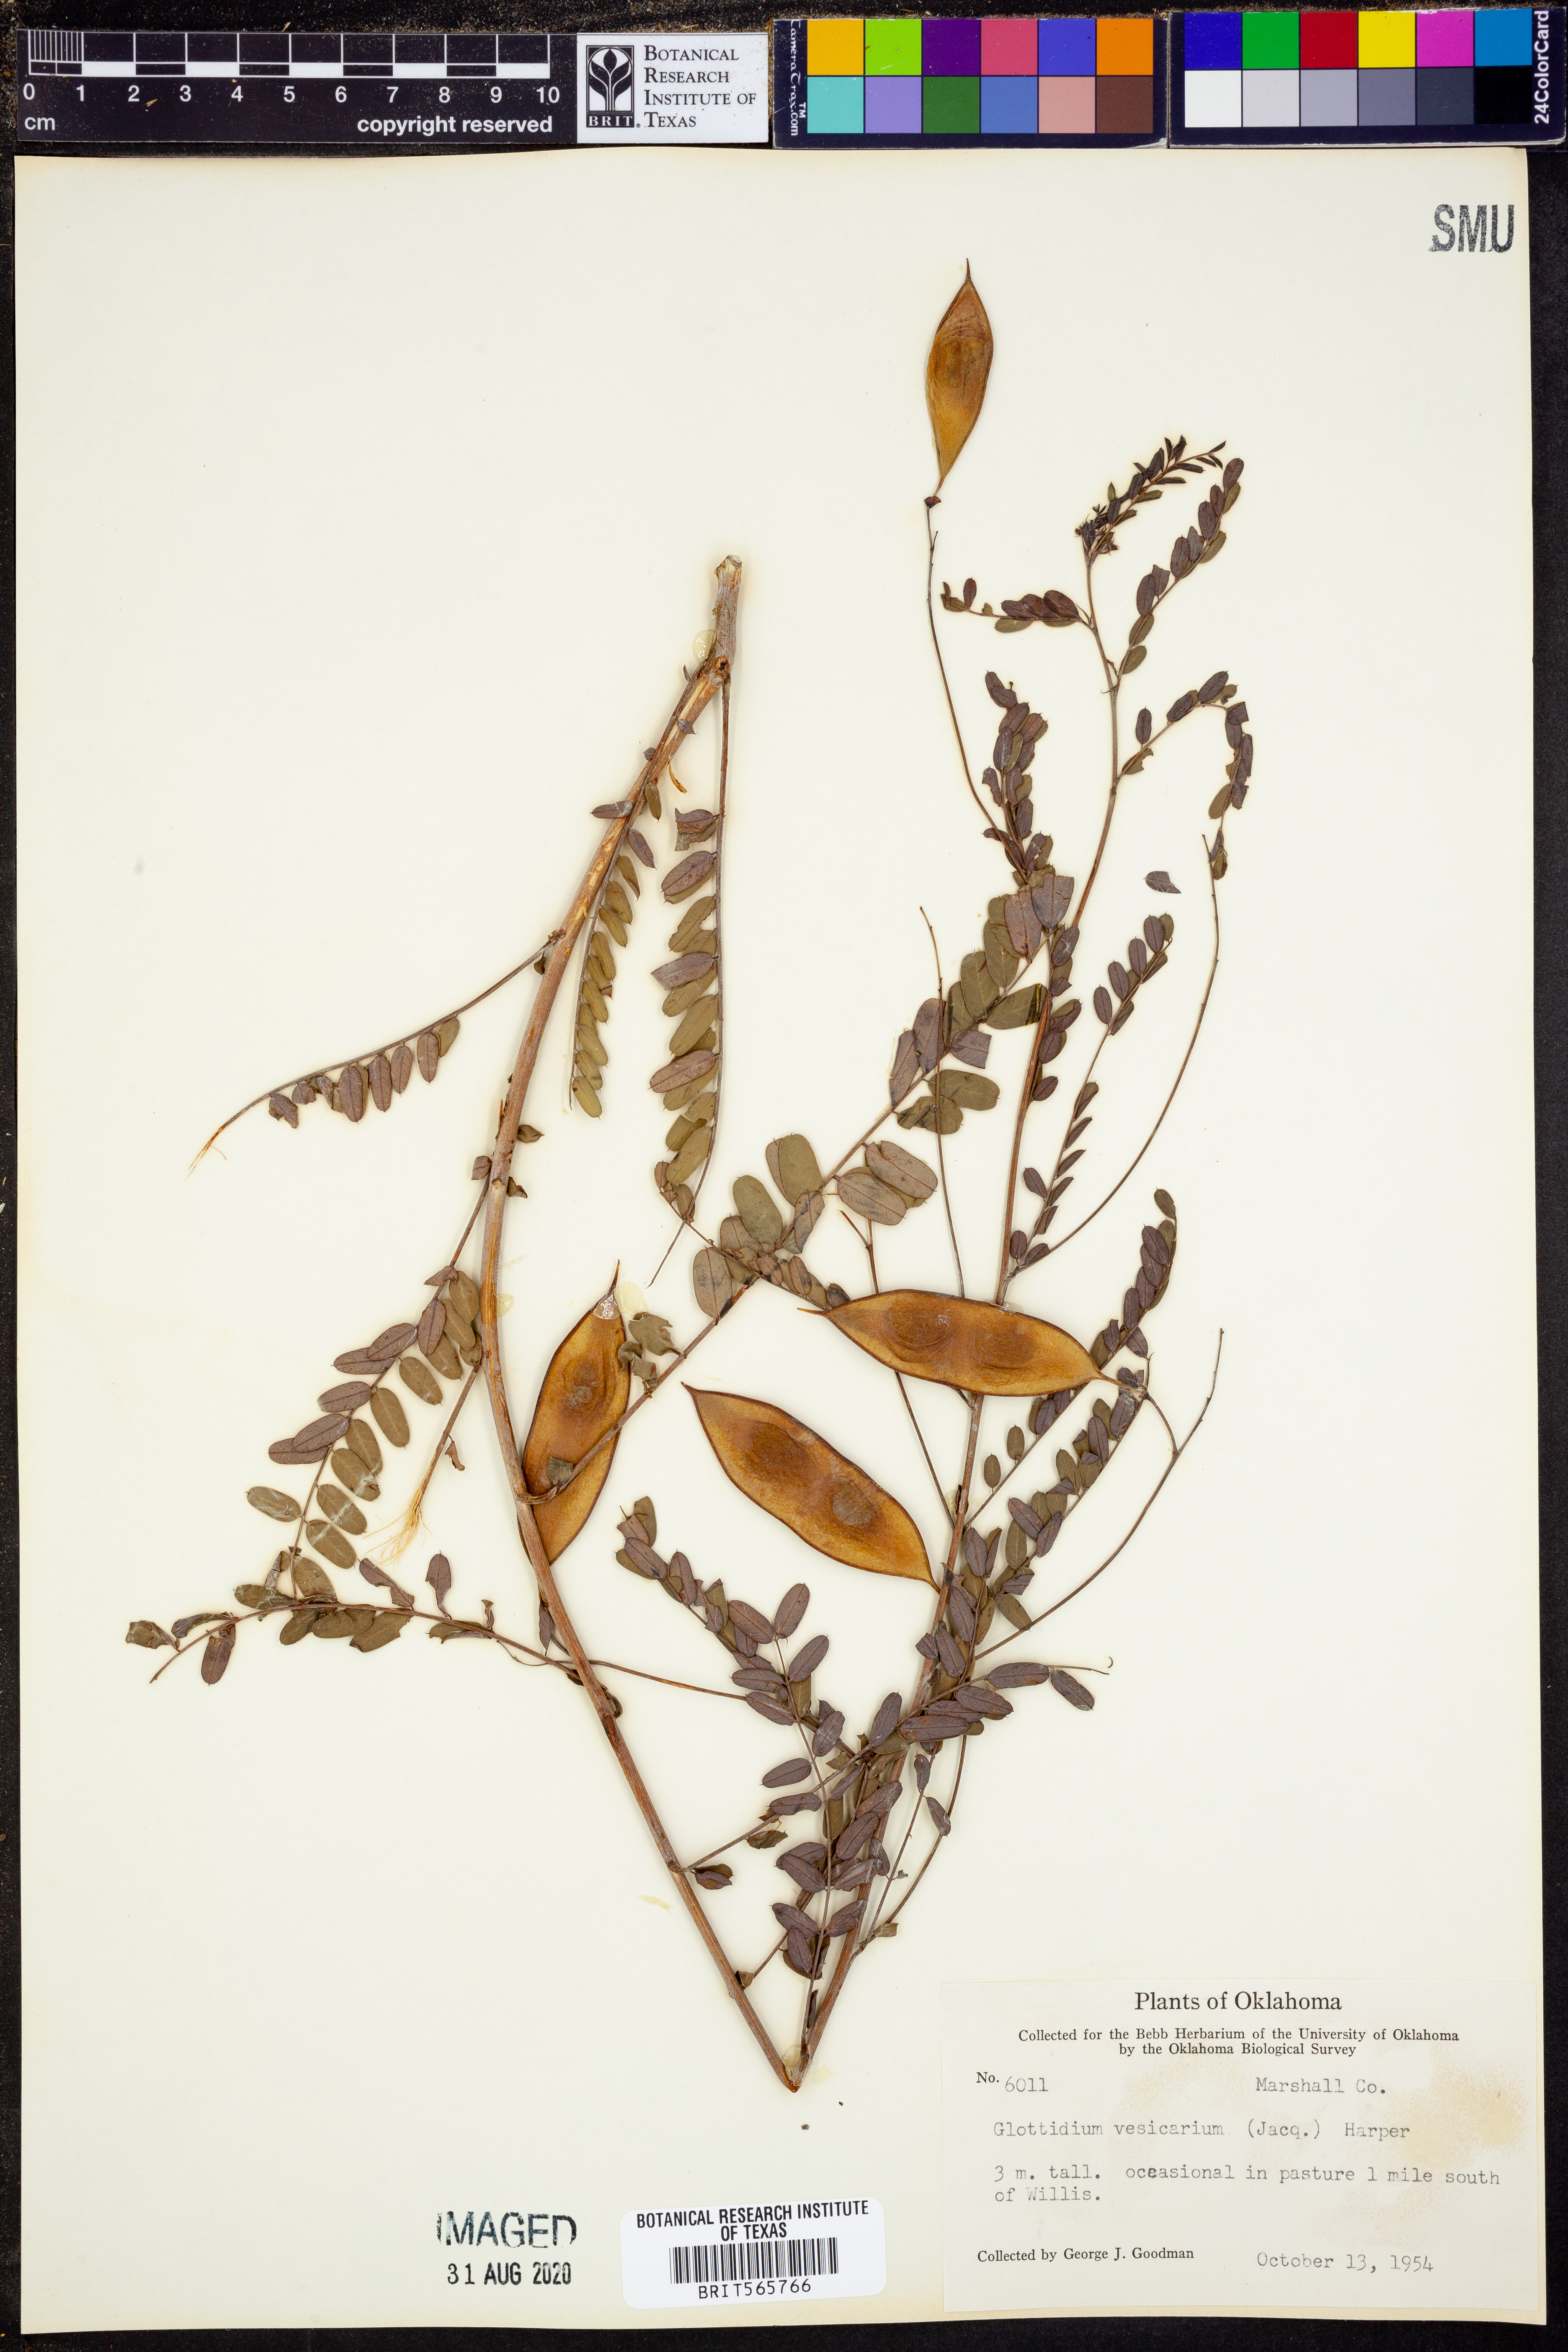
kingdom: Plantae
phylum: Tracheophyta
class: Magnoliopsida
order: Fabales
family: Fabaceae
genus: Sesbania
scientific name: Sesbania vesicaria
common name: Bagpod
